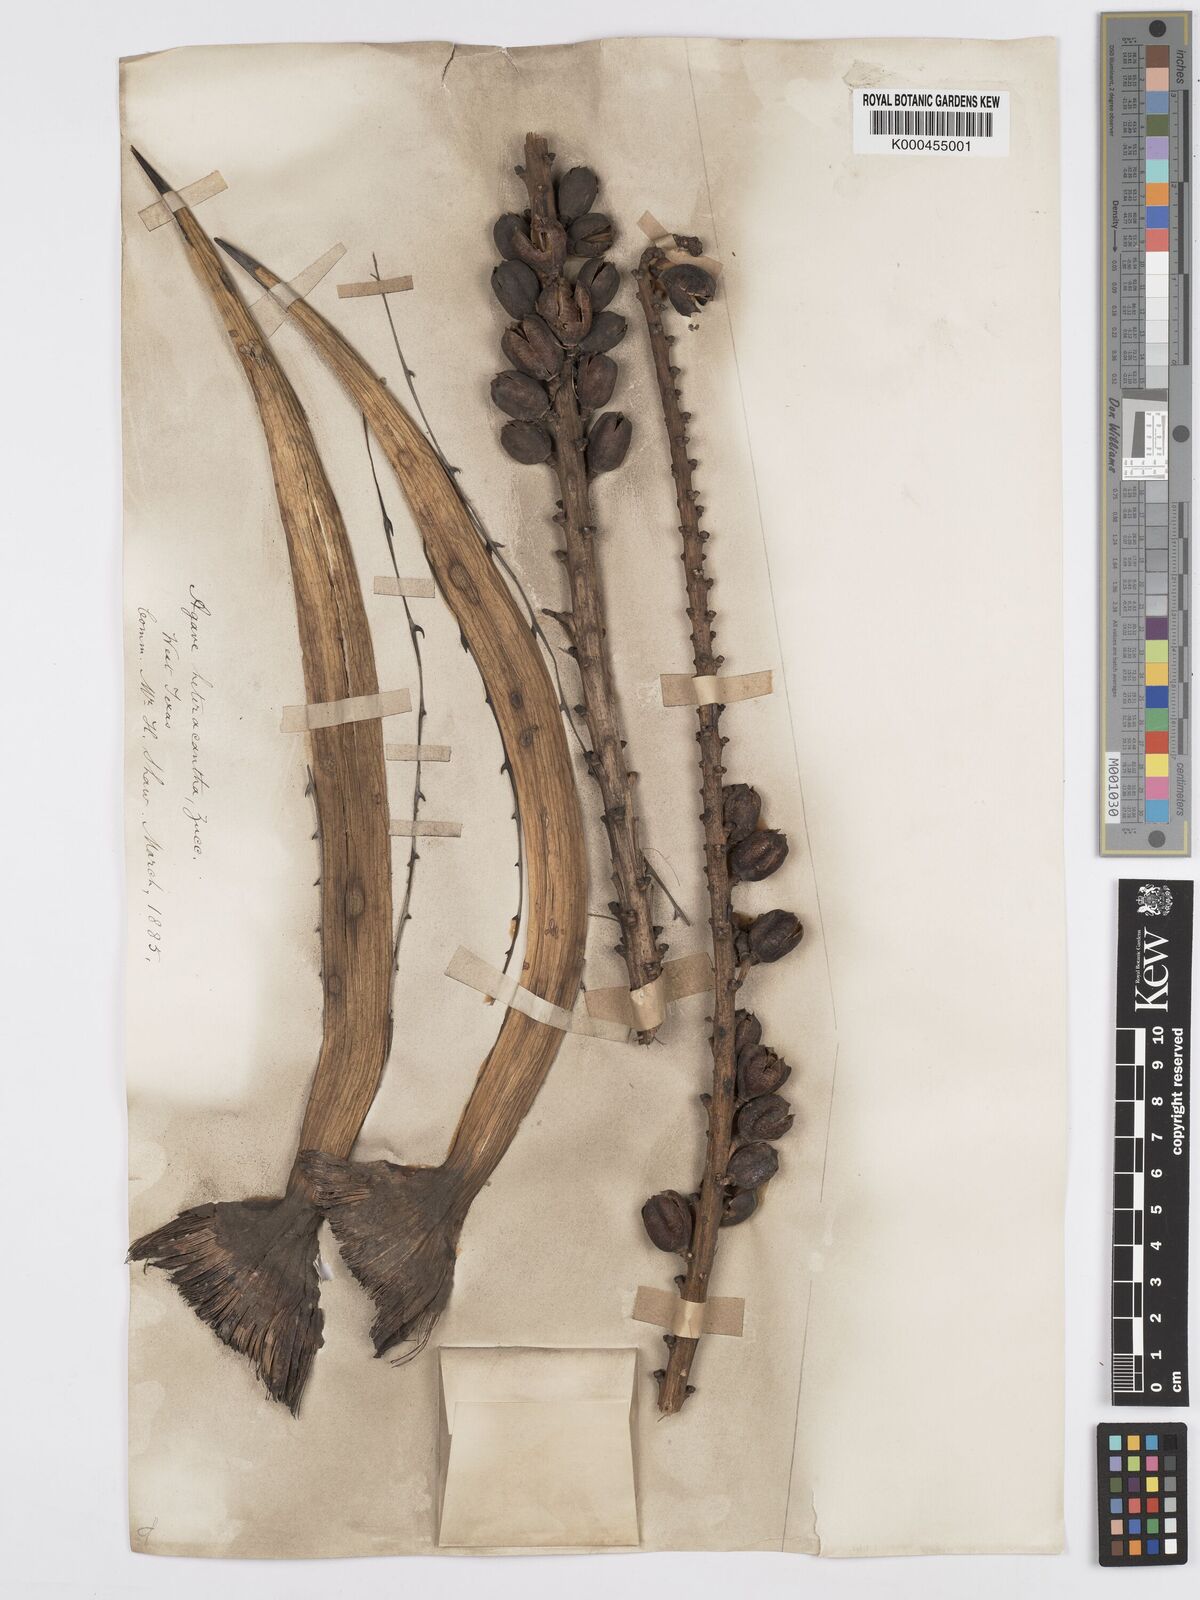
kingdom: Plantae
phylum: Tracheophyta
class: Liliopsida
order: Asparagales
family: Asparagaceae
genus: Agave
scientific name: Agave lechuguilla
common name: Lecheguilla agave
